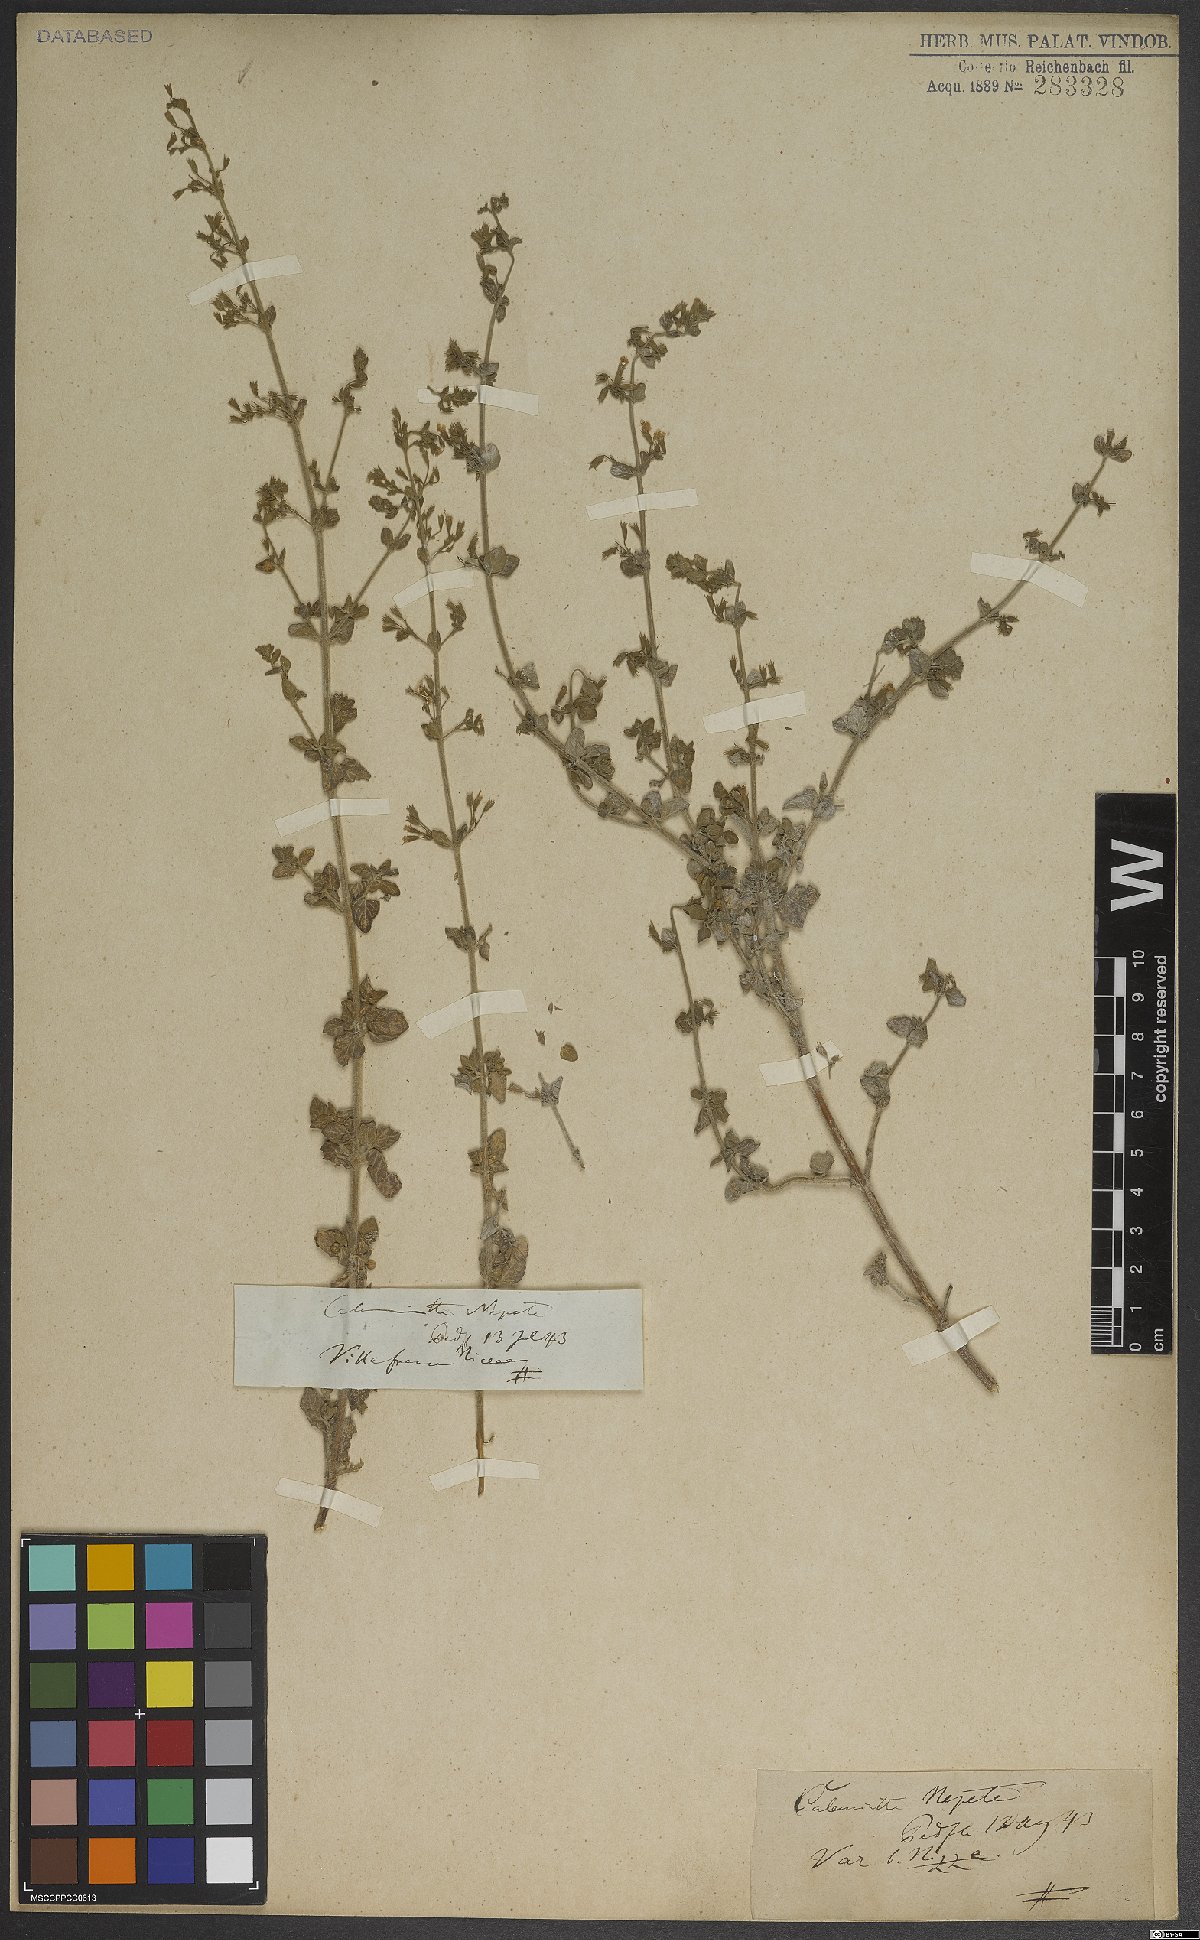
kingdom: Plantae
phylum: Tracheophyta
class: Magnoliopsida
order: Lamiales
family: Lamiaceae
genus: Clinopodium
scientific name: Clinopodium nepeta
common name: Lesser calamint
